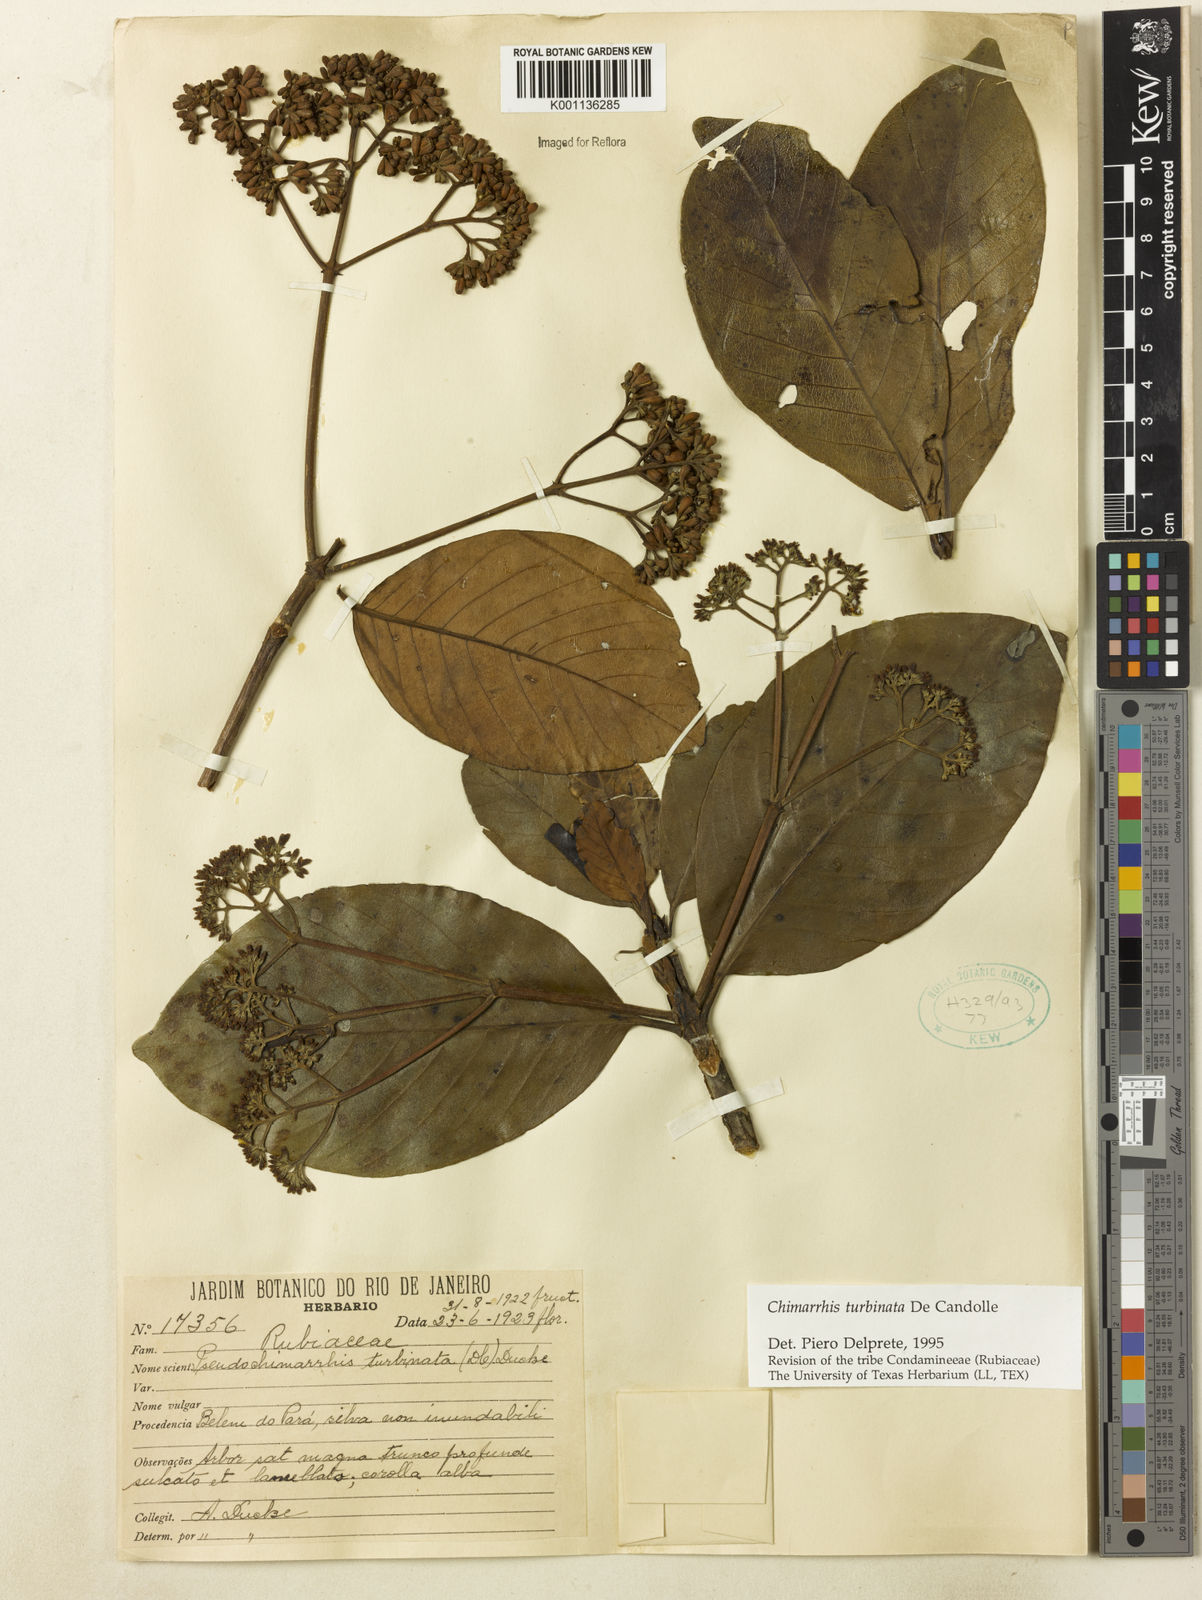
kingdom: Plantae
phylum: Tracheophyta
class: Magnoliopsida
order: Gentianales
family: Rubiaceae
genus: Chimarrhis
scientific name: Chimarrhis turbinata
